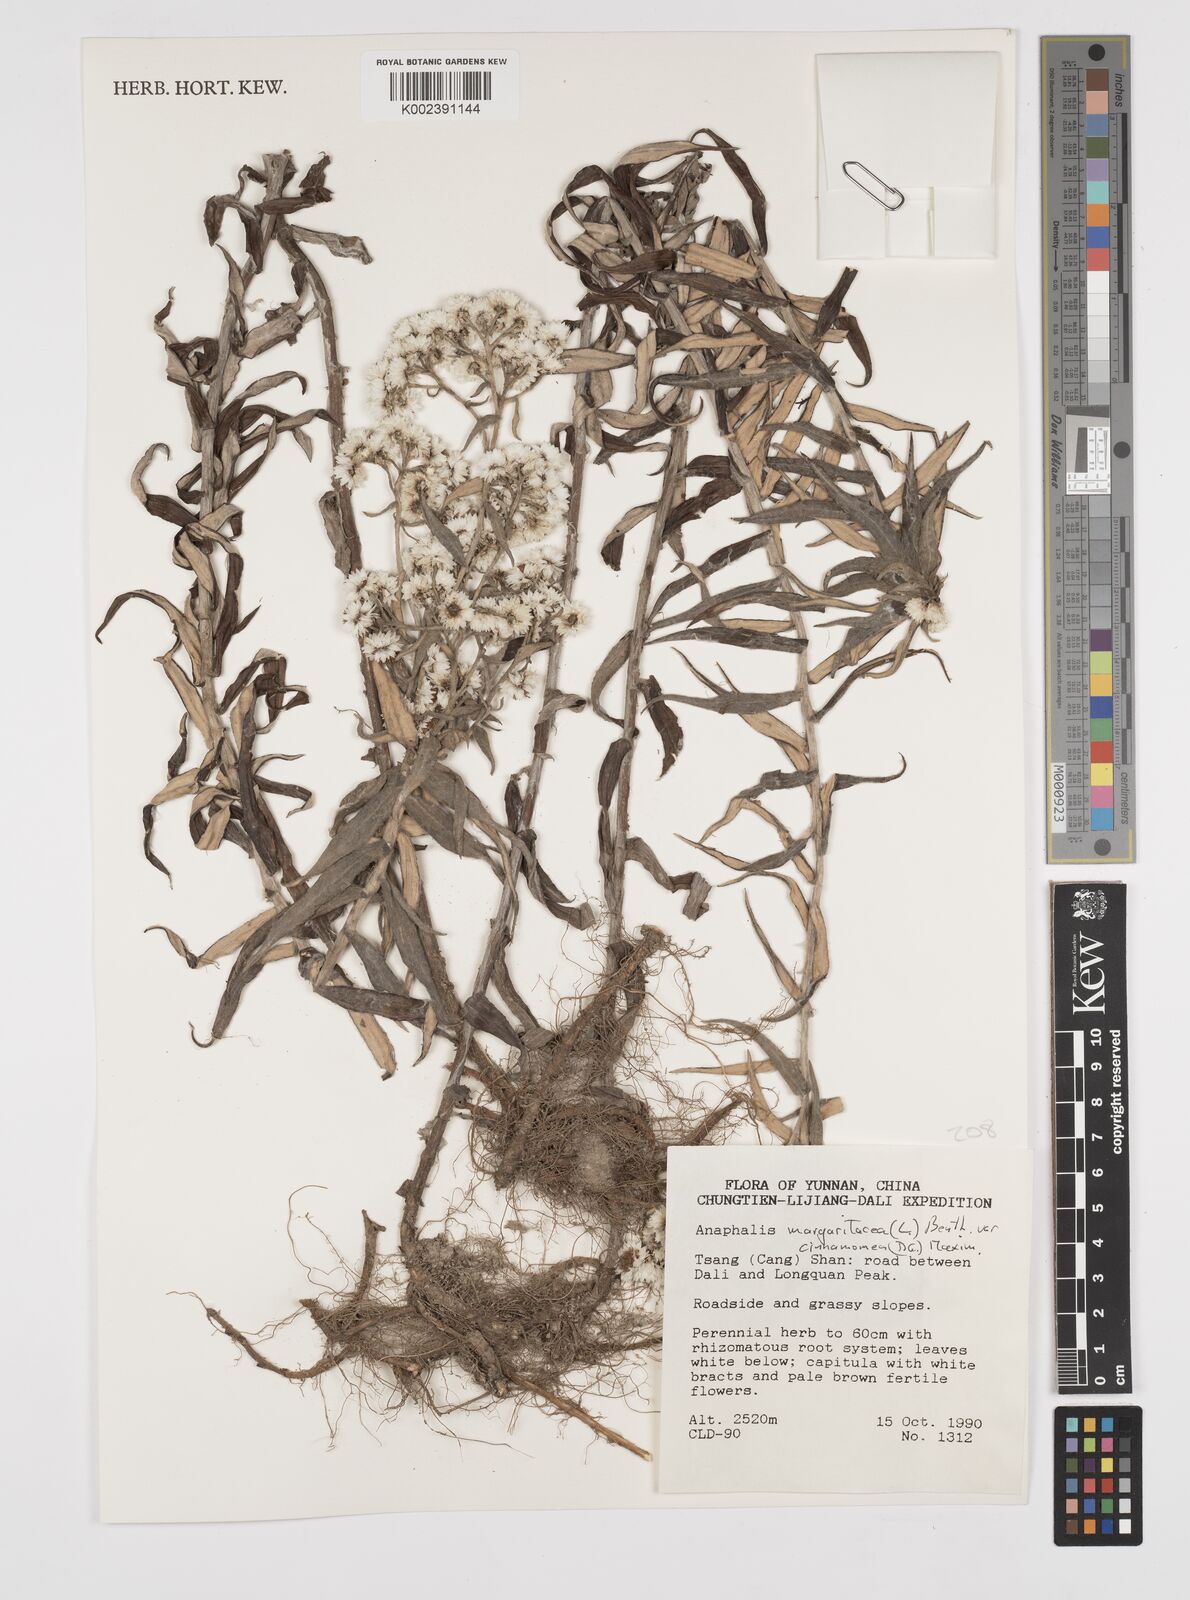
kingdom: Plantae
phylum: Tracheophyta
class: Magnoliopsida
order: Asterales
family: Asteraceae
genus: Anaphalis
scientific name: Anaphalis margaritacea
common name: Pearly everlasting
